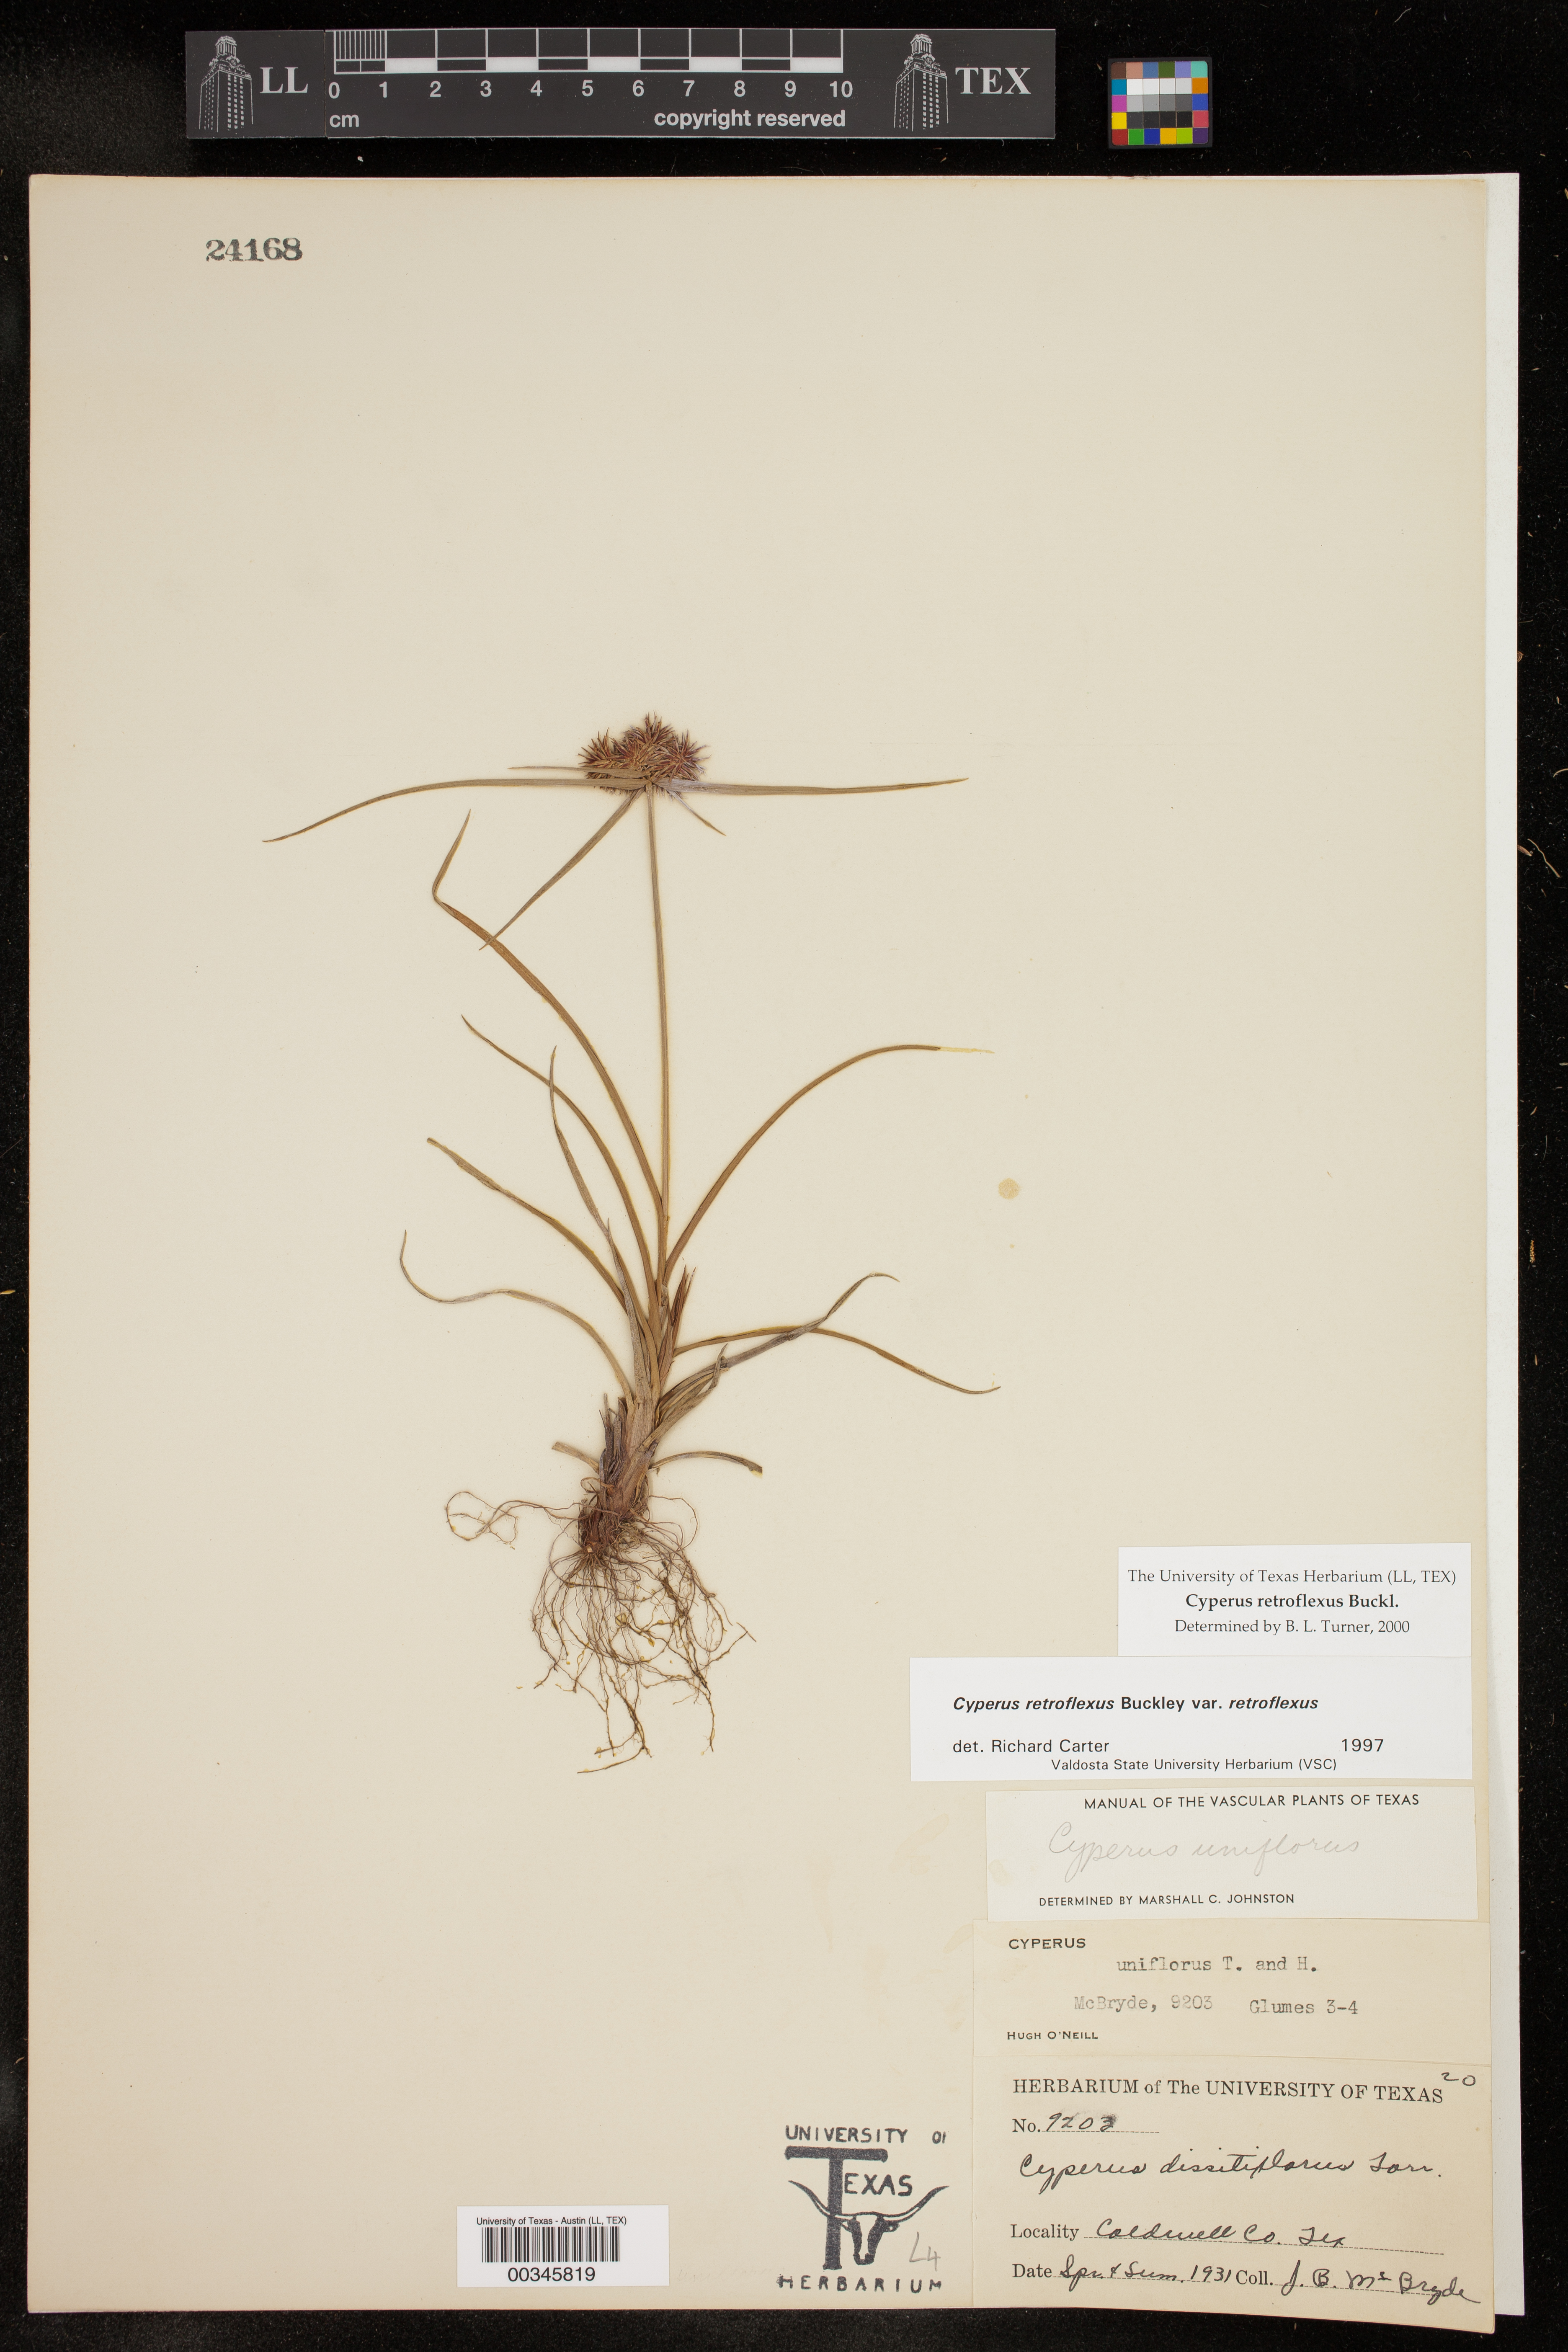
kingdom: Plantae
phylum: Tracheophyta
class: Liliopsida
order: Poales
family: Cyperaceae
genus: Cyperus
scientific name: Cyperus retroflexus
